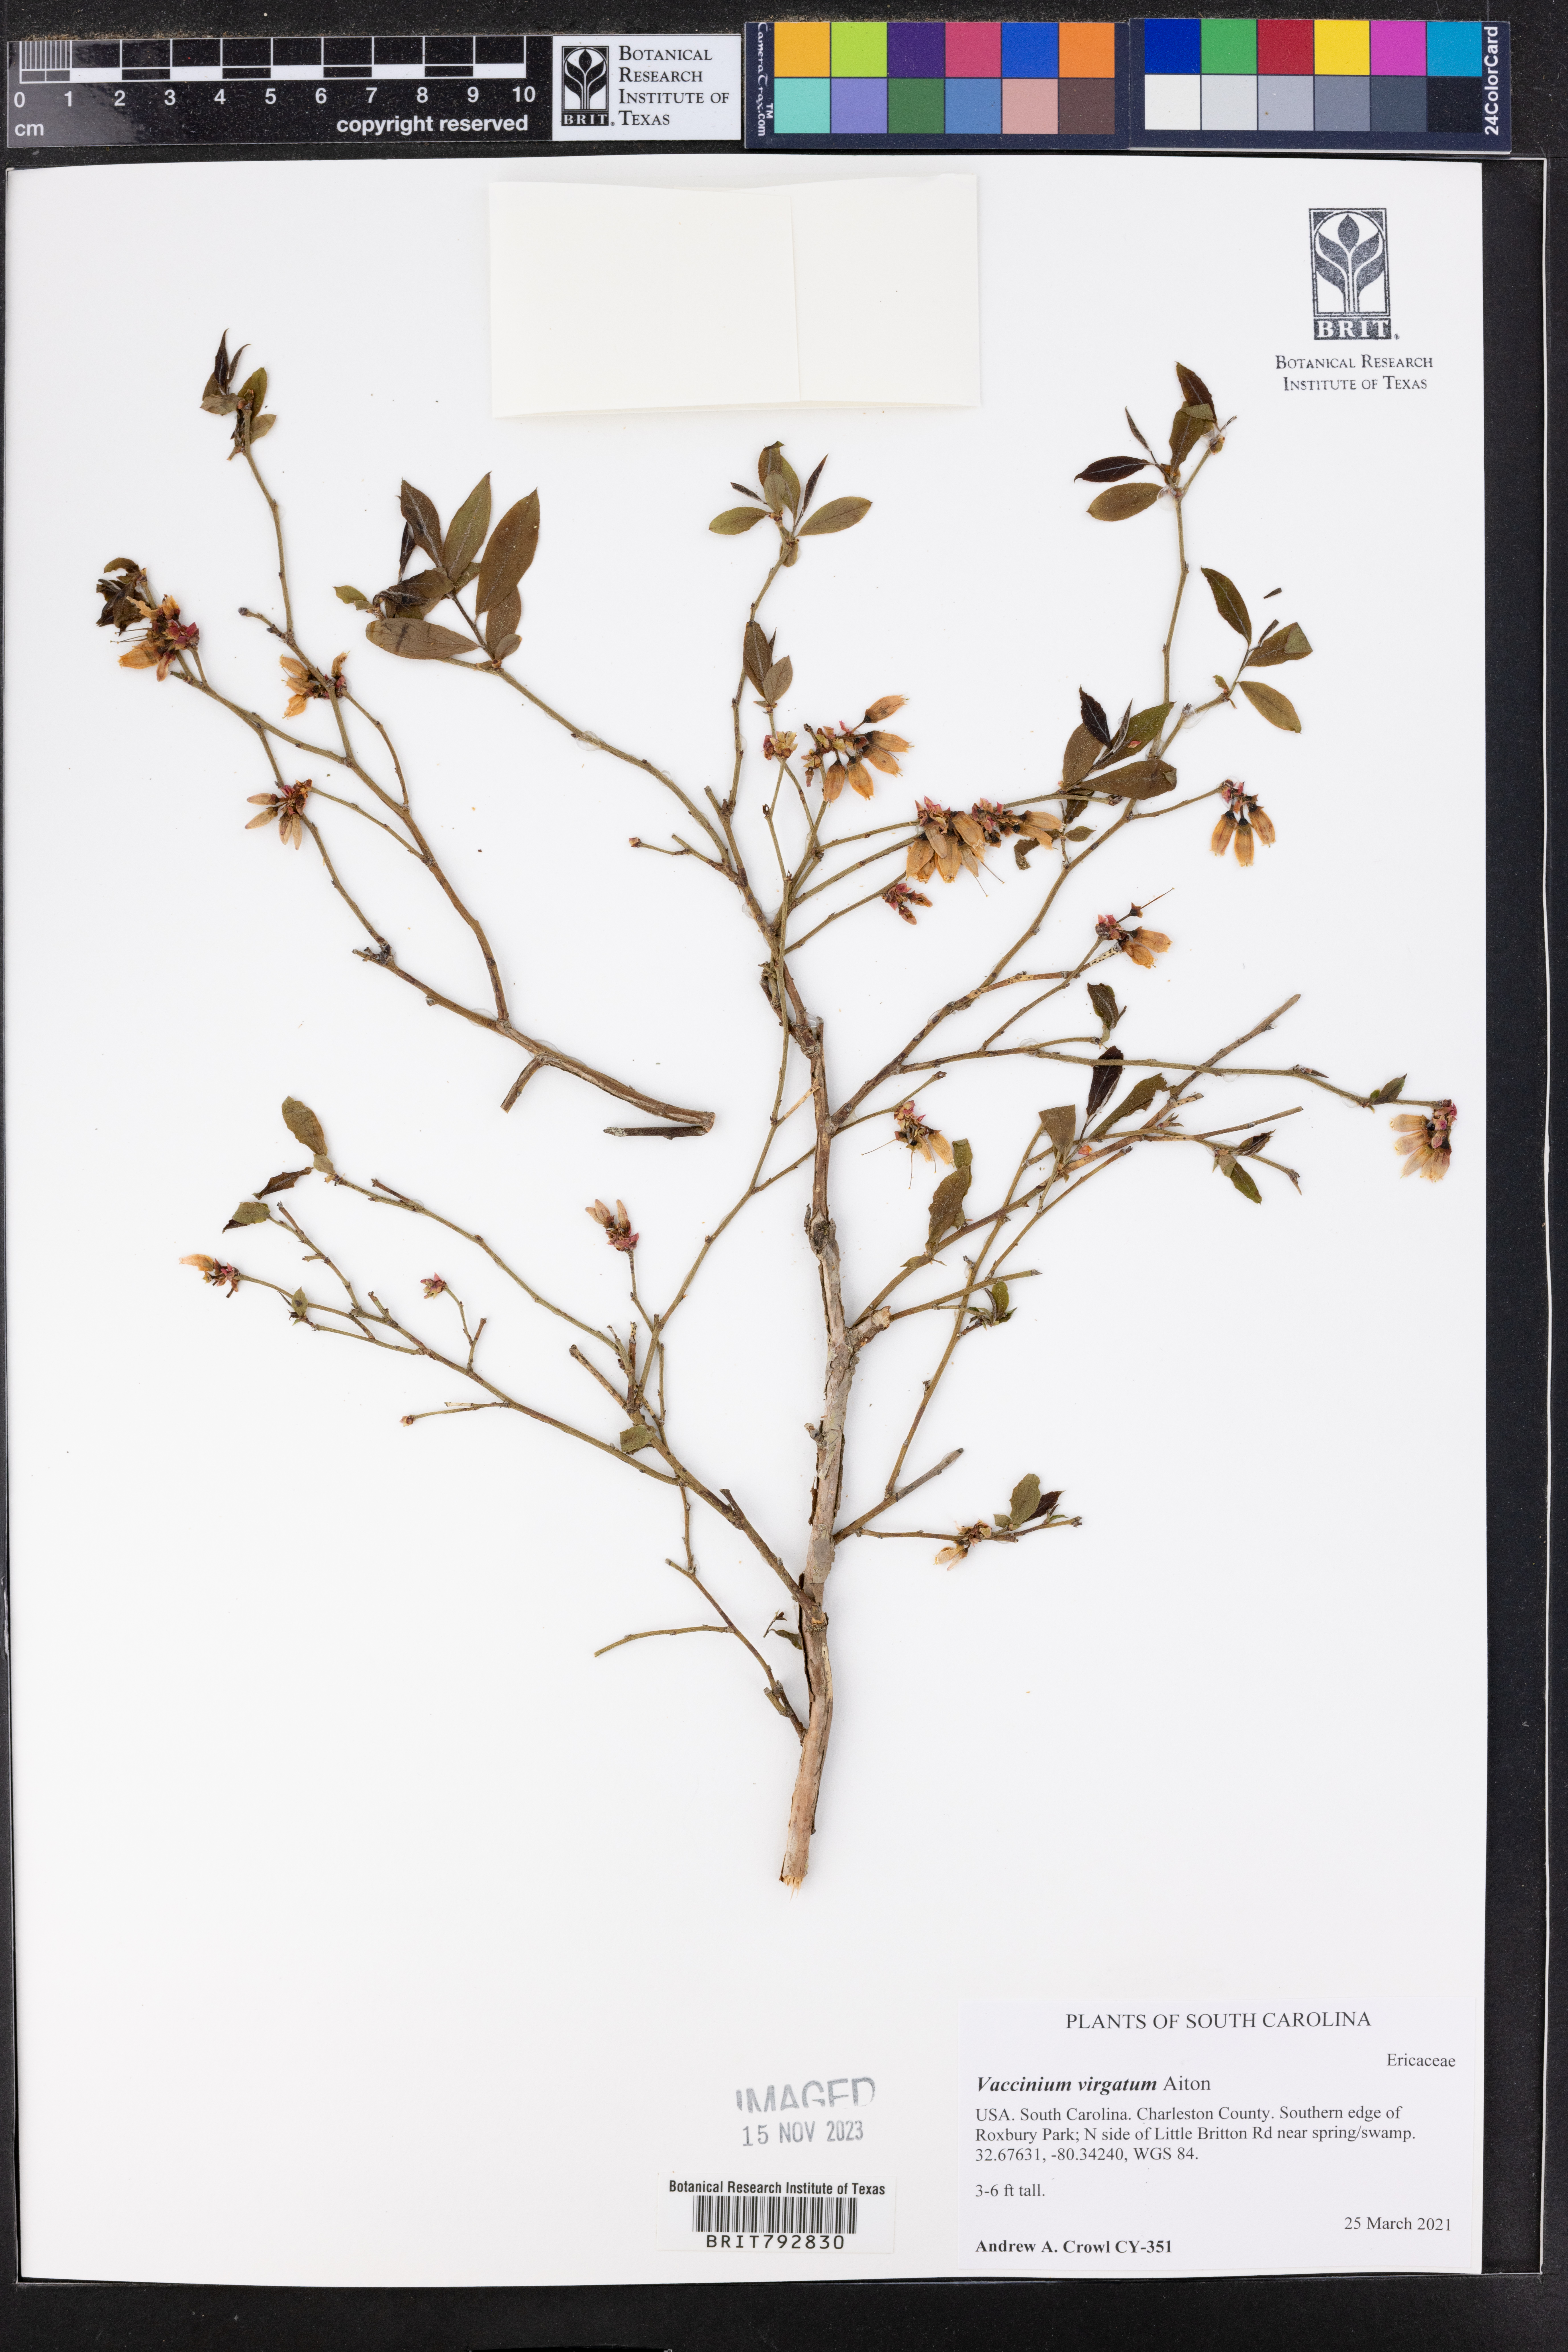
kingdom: Plantae
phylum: Tracheophyta
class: Magnoliopsida
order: Ericales
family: Ericaceae
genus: Vaccinium
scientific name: Vaccinium corymbosum
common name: Blueberry
